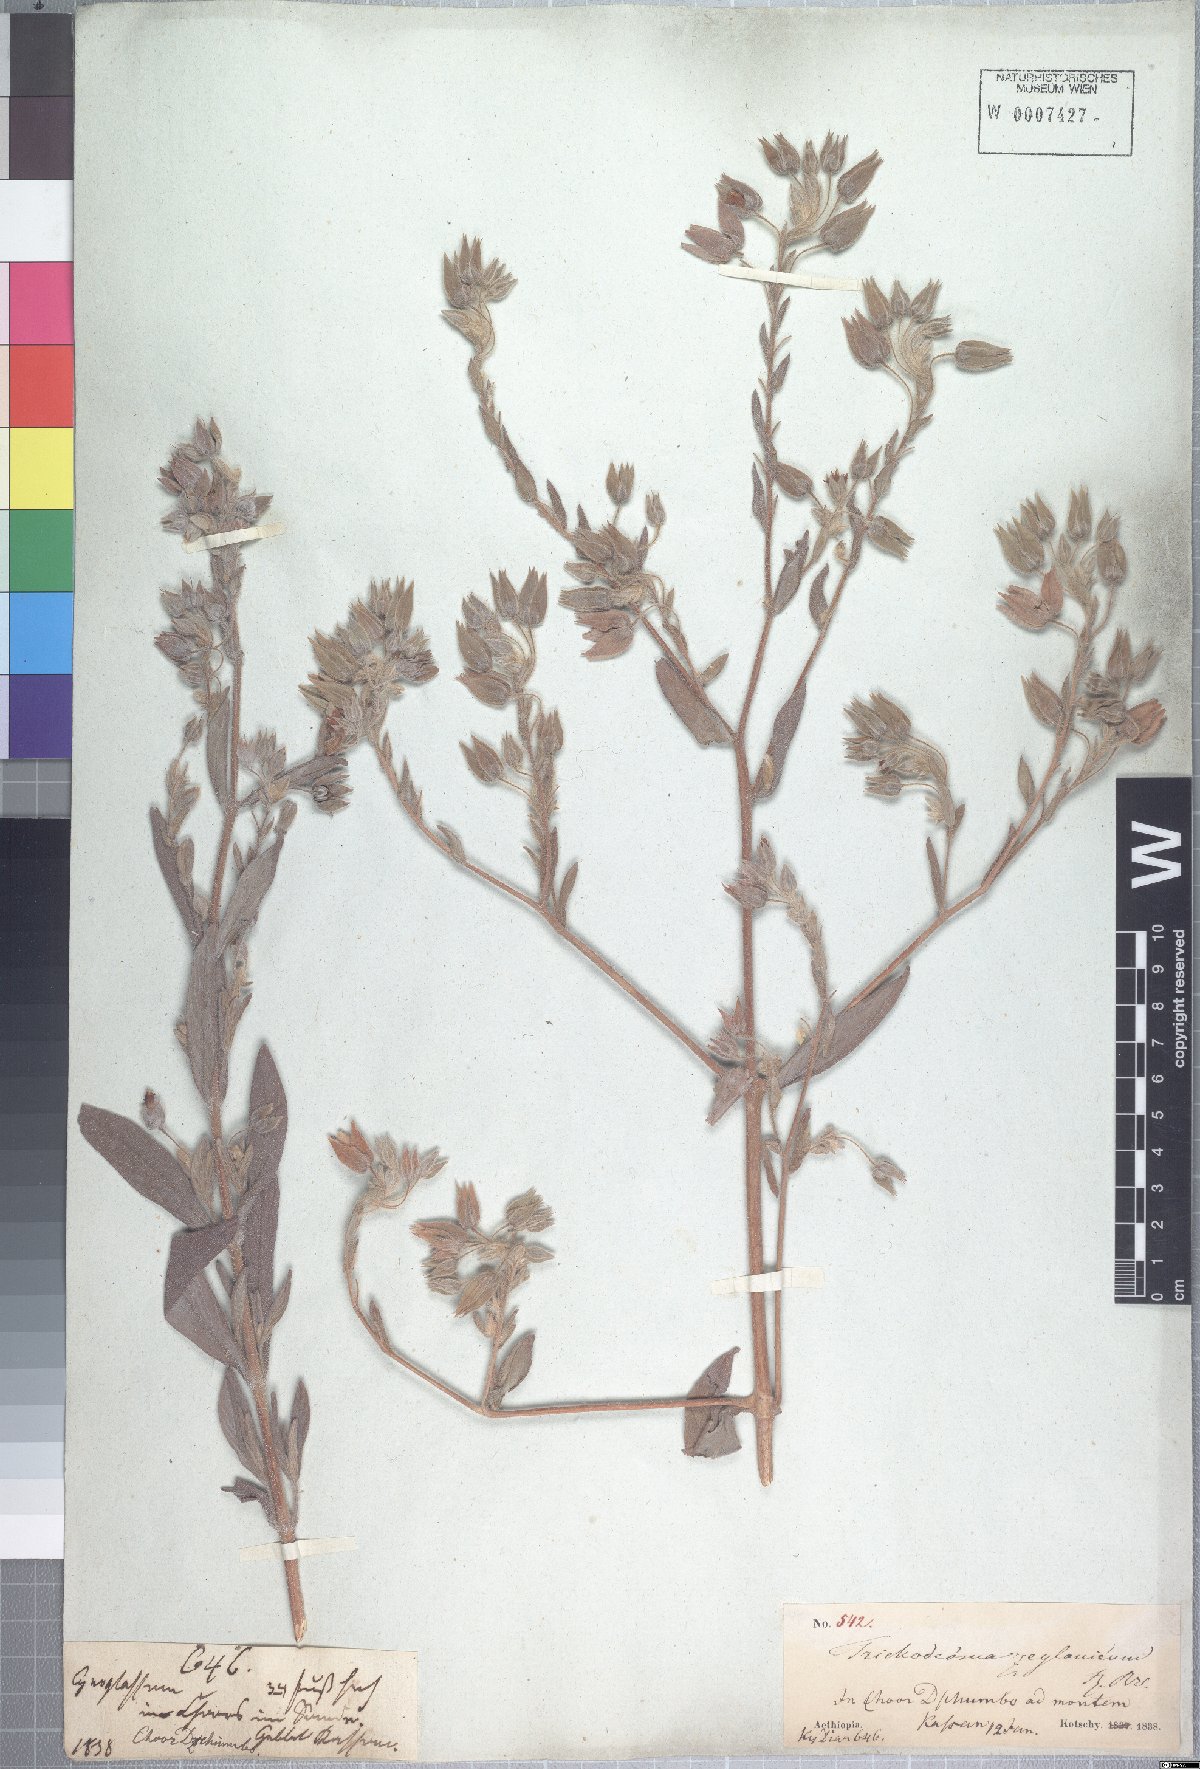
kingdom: Plantae
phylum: Tracheophyta
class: Magnoliopsida
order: Boraginales
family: Boraginaceae
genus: Trichodesma
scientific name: Trichodesma zeylanicum
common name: Camelbush
